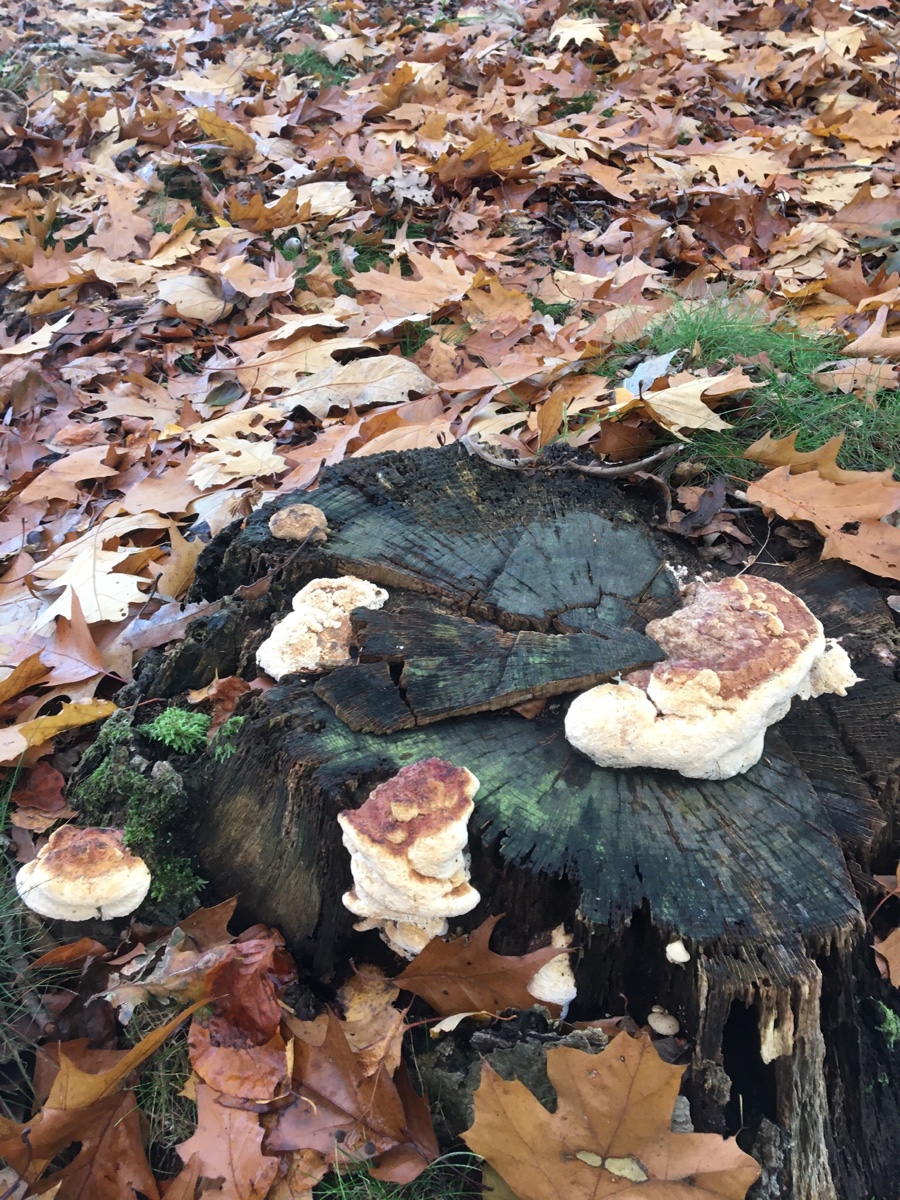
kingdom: Fungi
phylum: Basidiomycota
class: Agaricomycetes
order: Polyporales
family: Fomitopsidaceae
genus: Daedalea
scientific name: Daedalea quercina
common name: ege-labyrintsvamp
